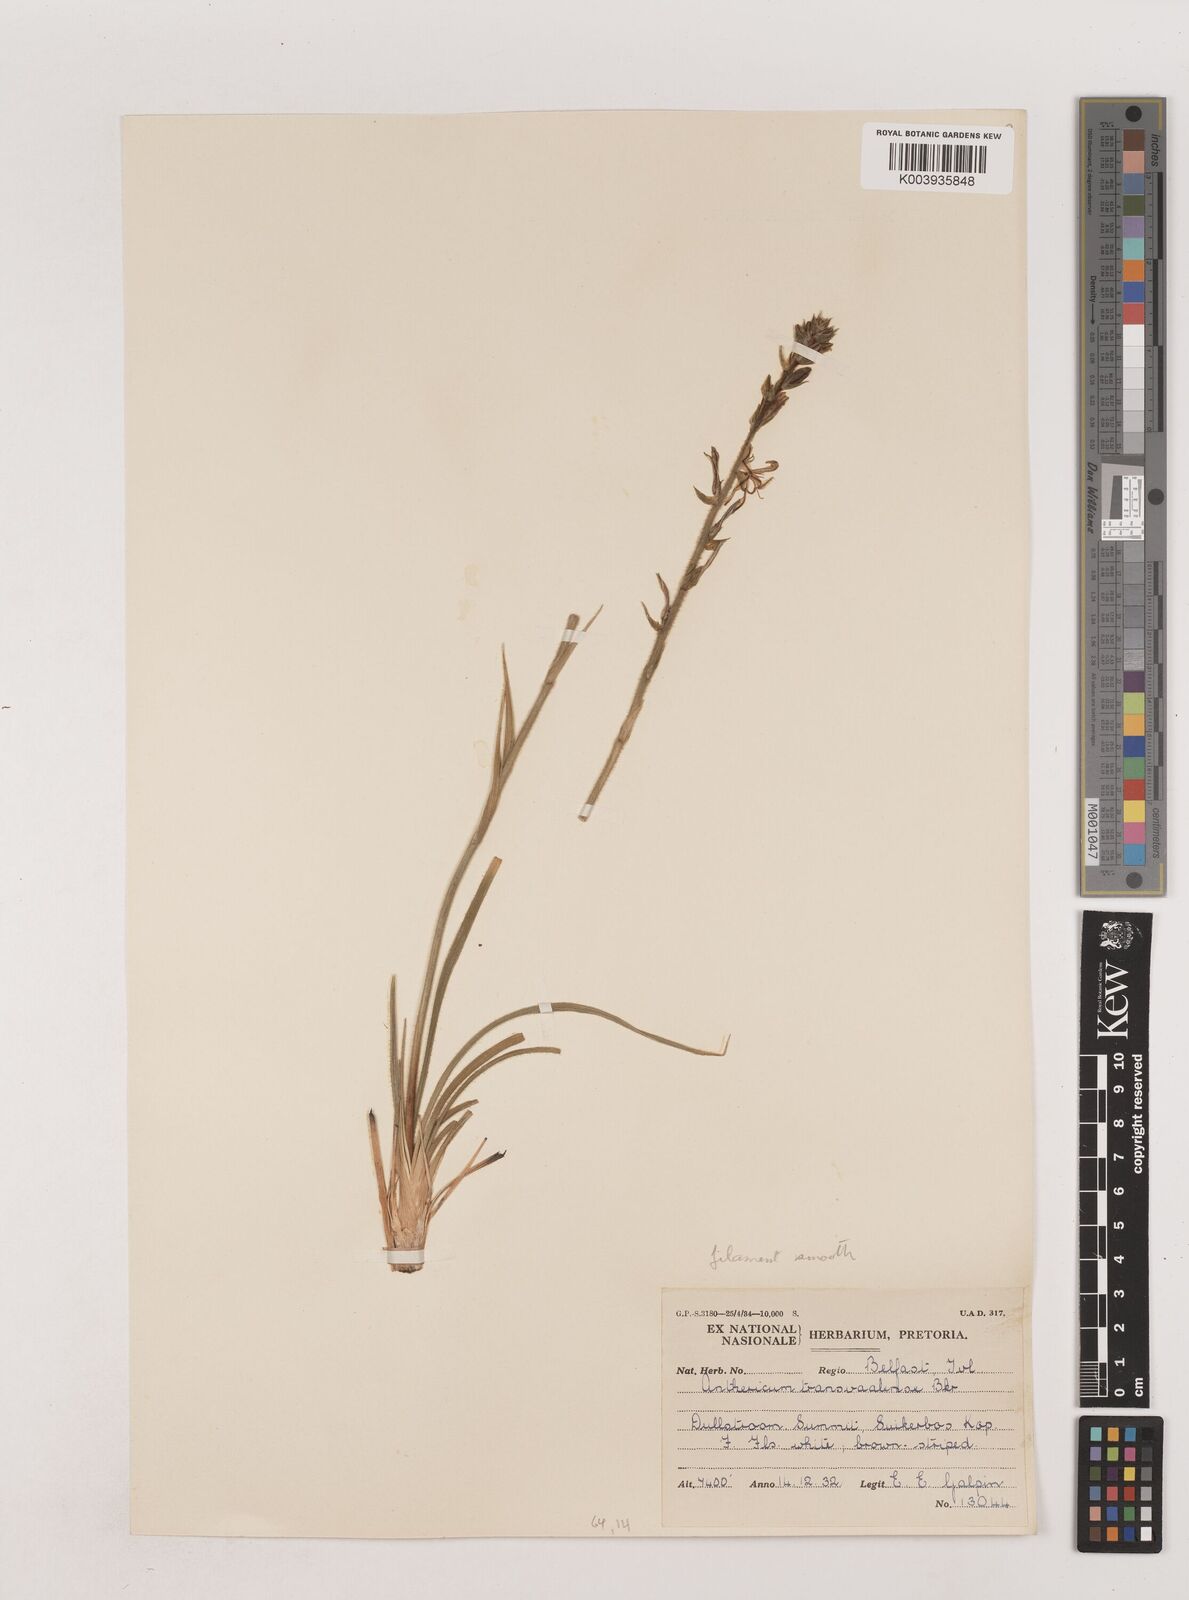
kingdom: Plantae
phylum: Tracheophyta
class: Liliopsida
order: Asparagales
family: Asparagaceae
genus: Chlorophytum
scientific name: Chlorophytum transvaalense
